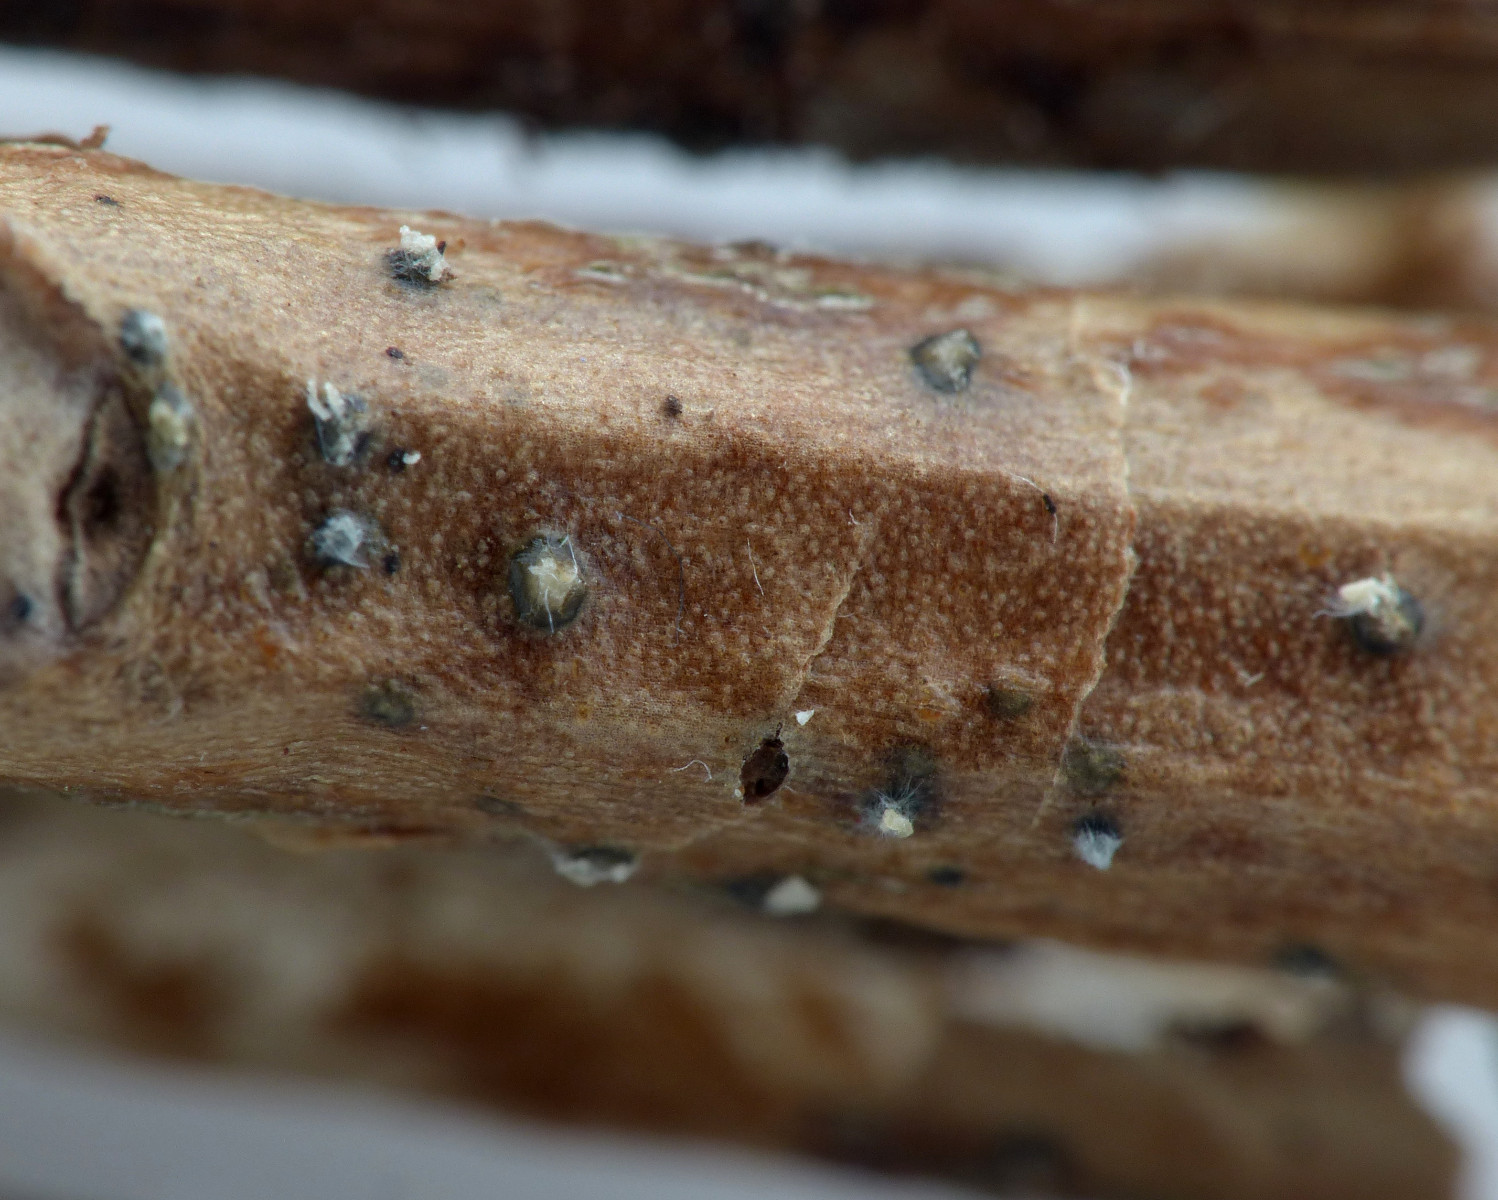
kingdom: Fungi
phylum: Ascomycota
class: Sordariomycetes
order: Diaporthales
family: Diaporthaceae
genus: Diaporthe
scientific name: Diaporthe crustosa
